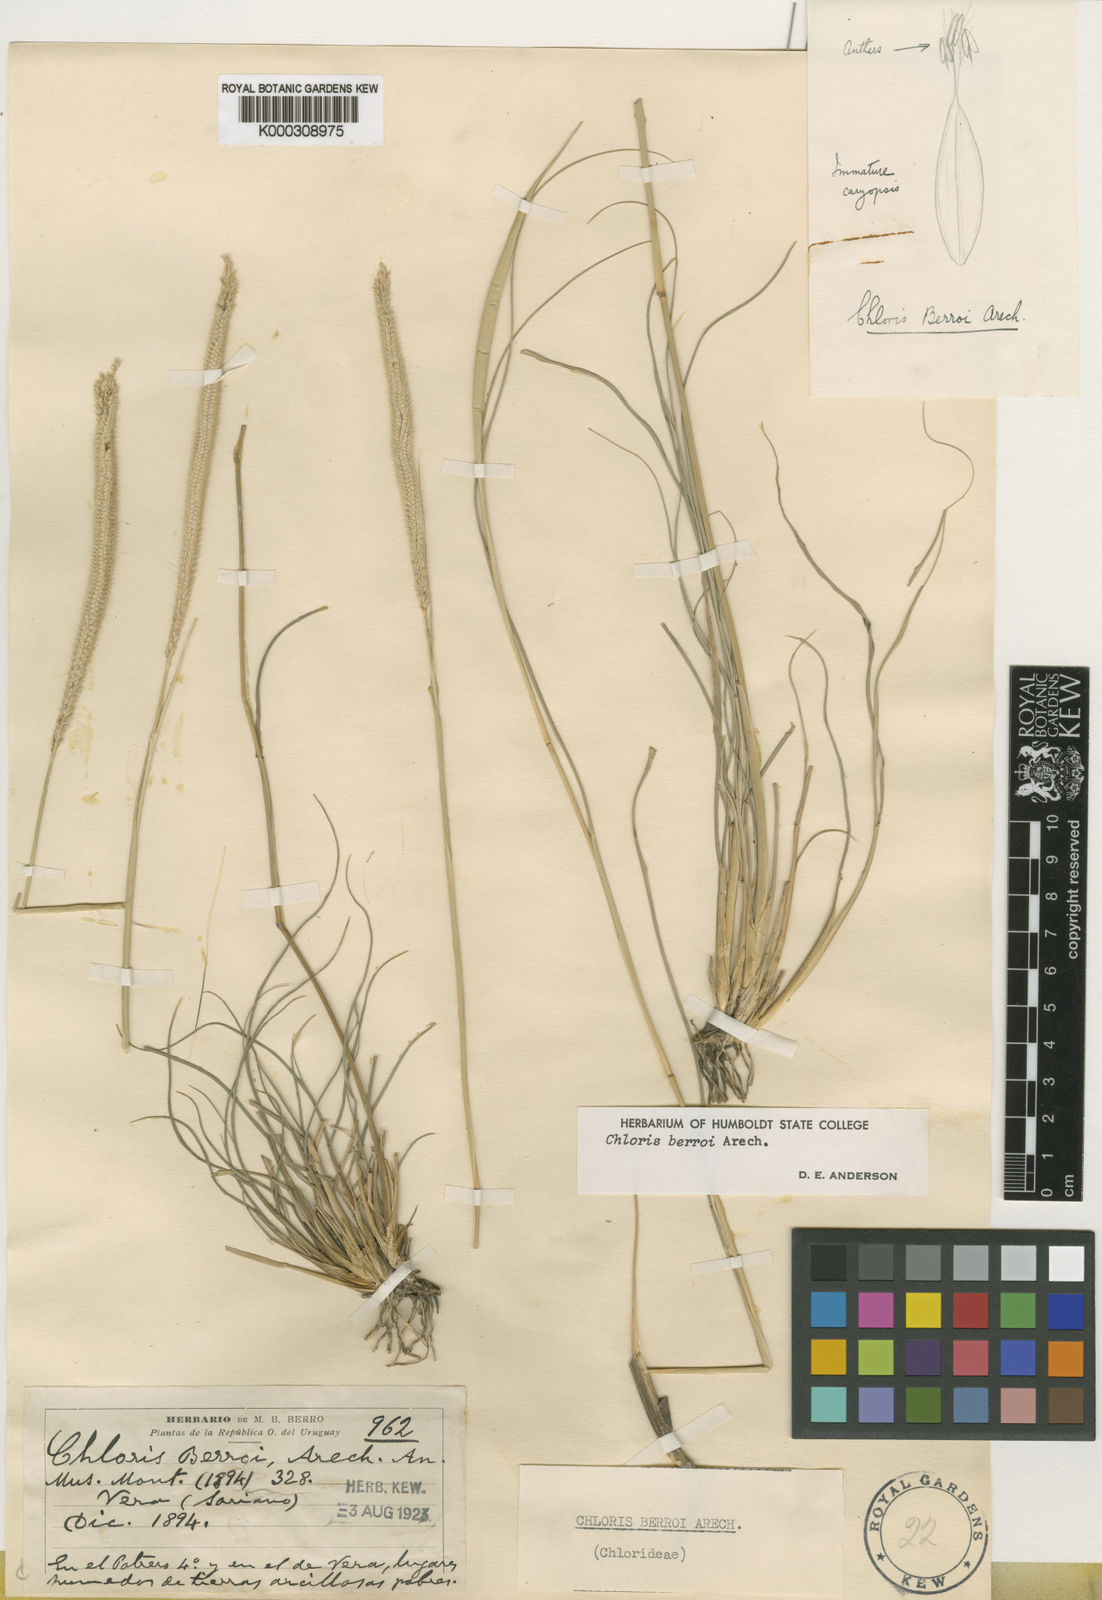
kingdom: Plantae
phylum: Tracheophyta
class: Liliopsida
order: Poales
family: Poaceae
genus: Stapfochloa
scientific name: Stapfochloa berroi
